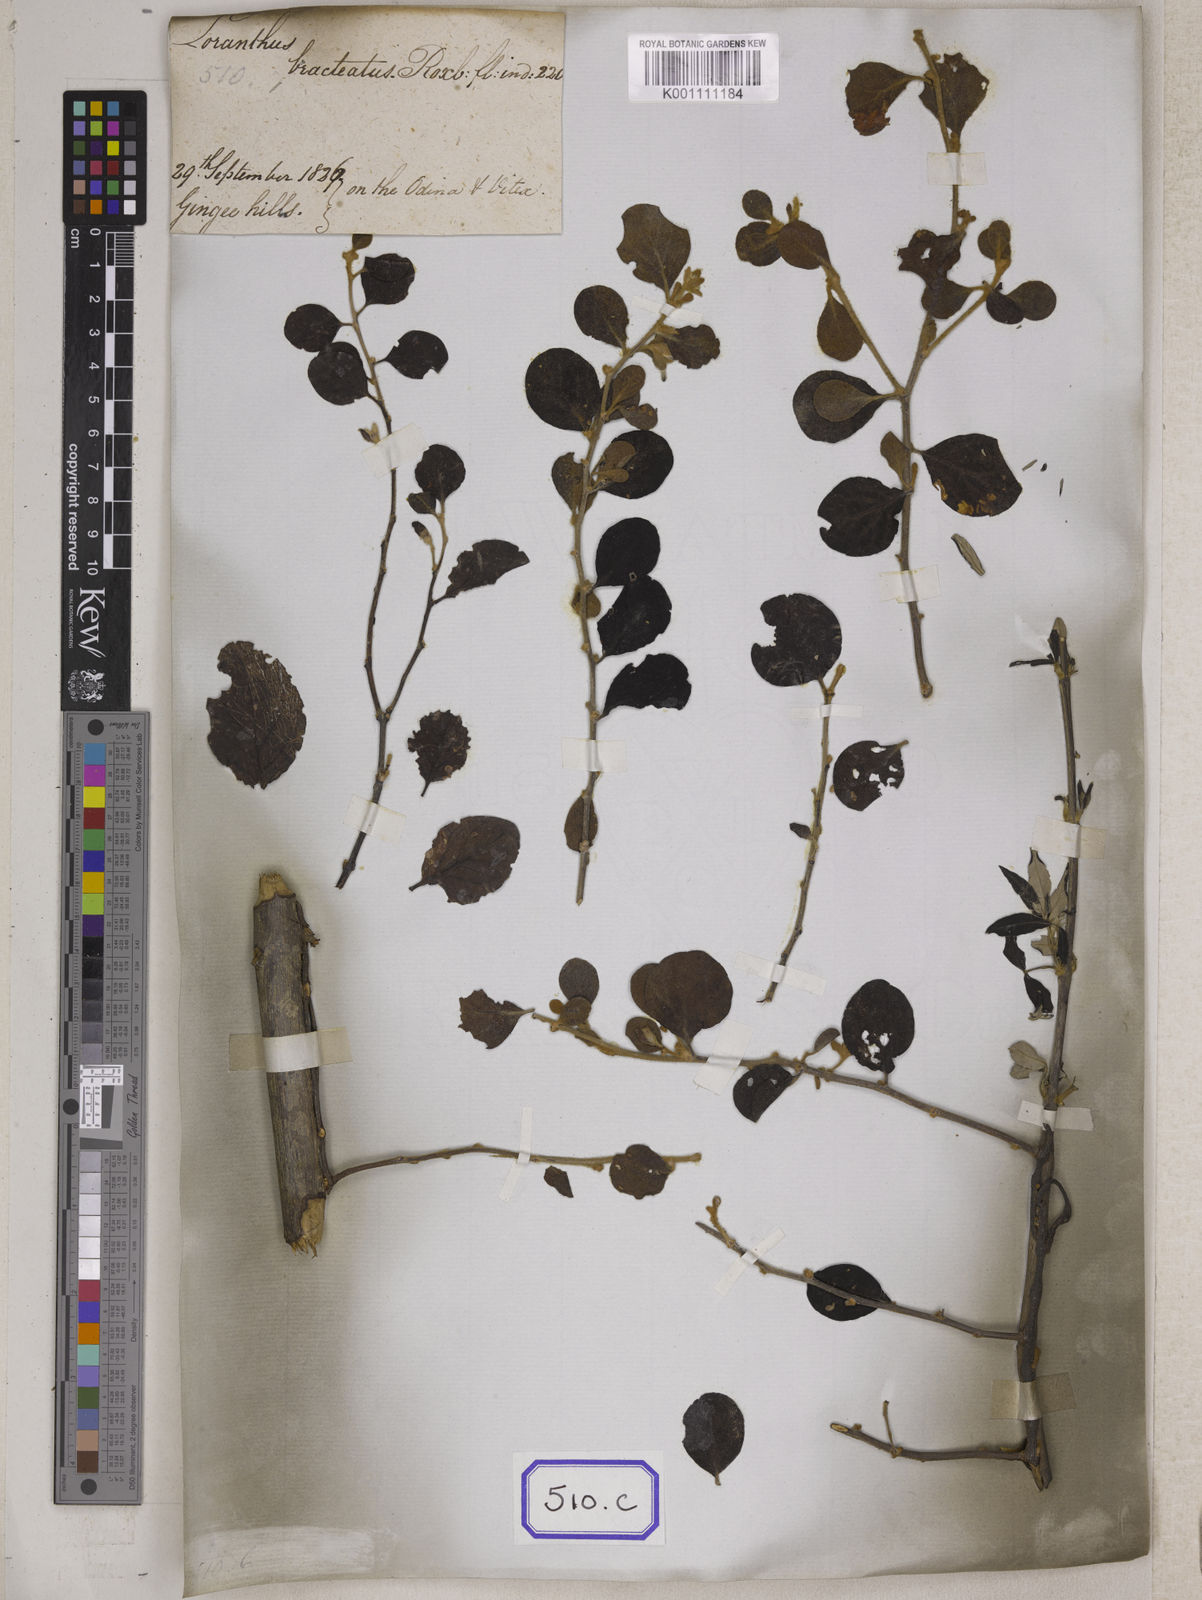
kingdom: Plantae
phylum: Tracheophyta
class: Magnoliopsida
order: Santalales
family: Loranthaceae
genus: Loranthus
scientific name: Loranthus
